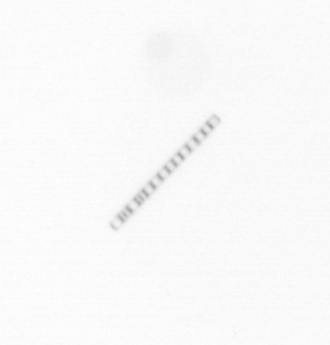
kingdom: Chromista
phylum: Ochrophyta
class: Bacillariophyceae
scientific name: Bacillariophyceae
